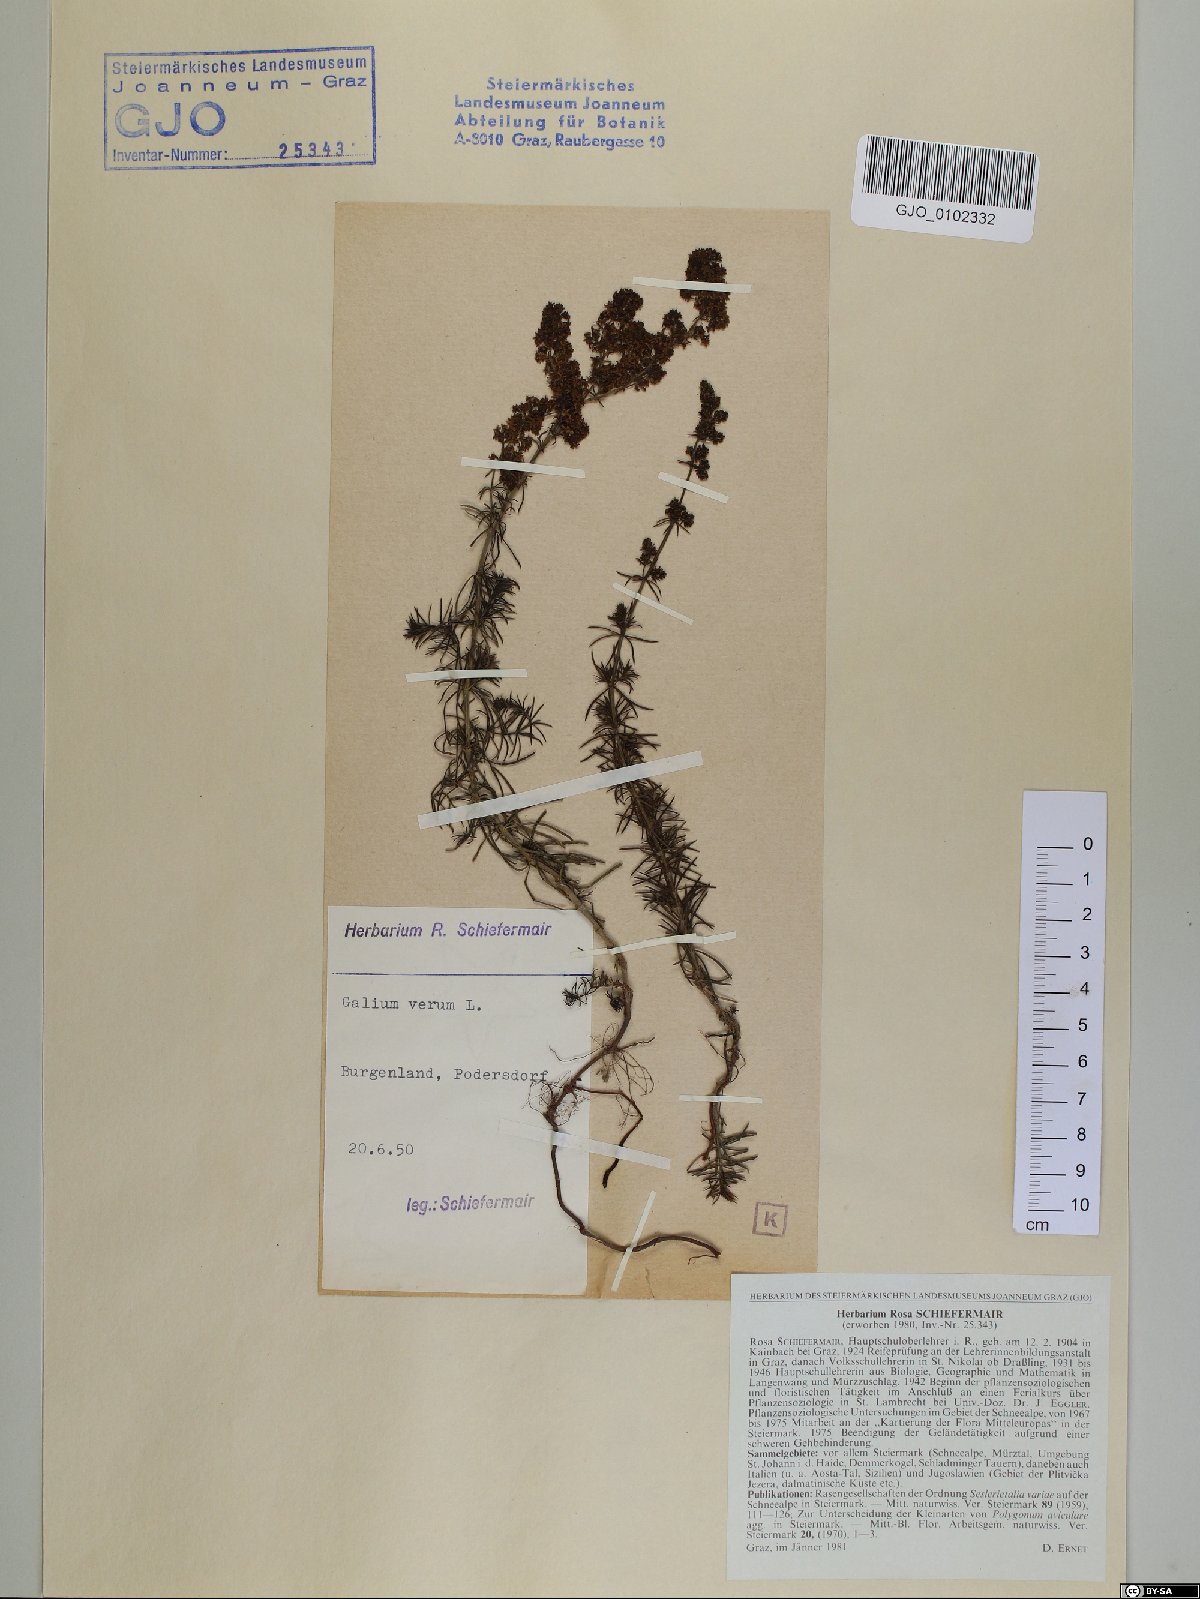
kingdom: Plantae
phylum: Tracheophyta
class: Magnoliopsida
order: Gentianales
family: Rubiaceae
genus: Galium
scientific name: Galium verum
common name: Lady's bedstraw
